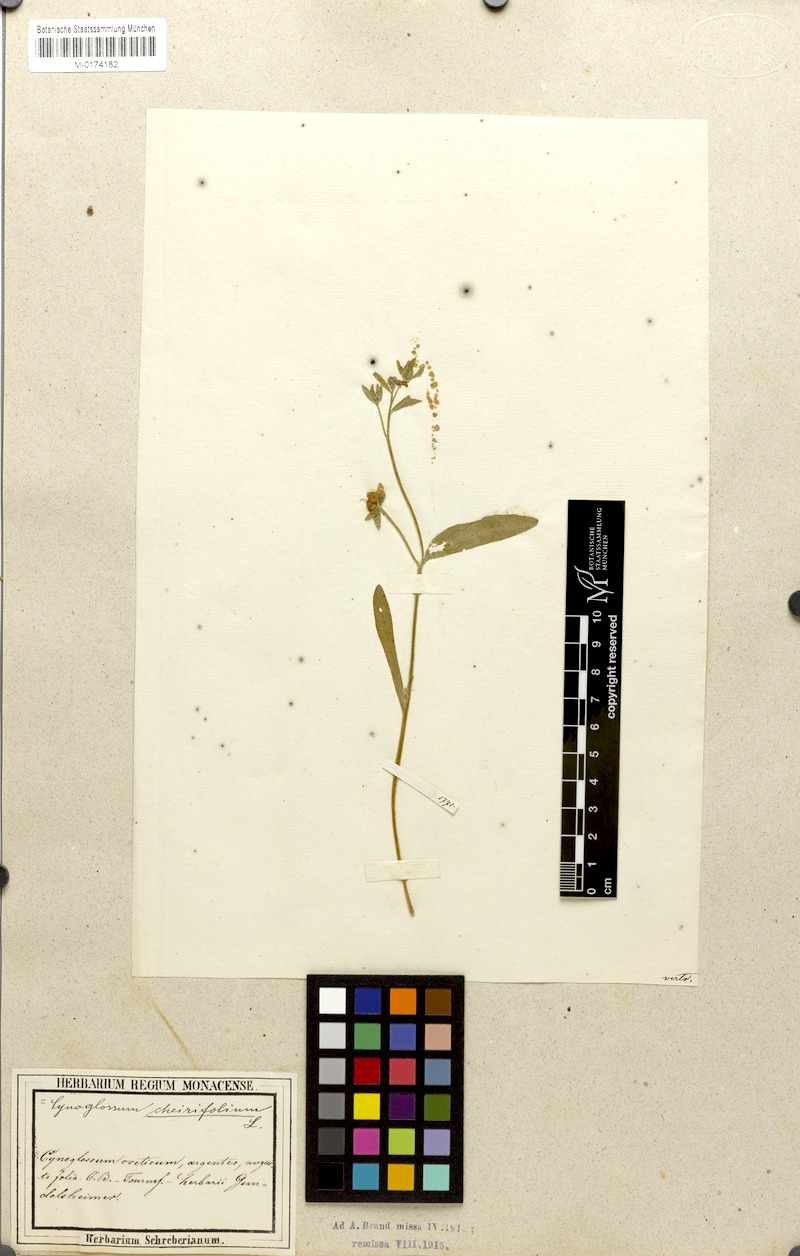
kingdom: Plantae
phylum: Tracheophyta
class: Magnoliopsida
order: Boraginales
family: Boraginaceae
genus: Pardoglossum
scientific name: Pardoglossum cheirifolium
